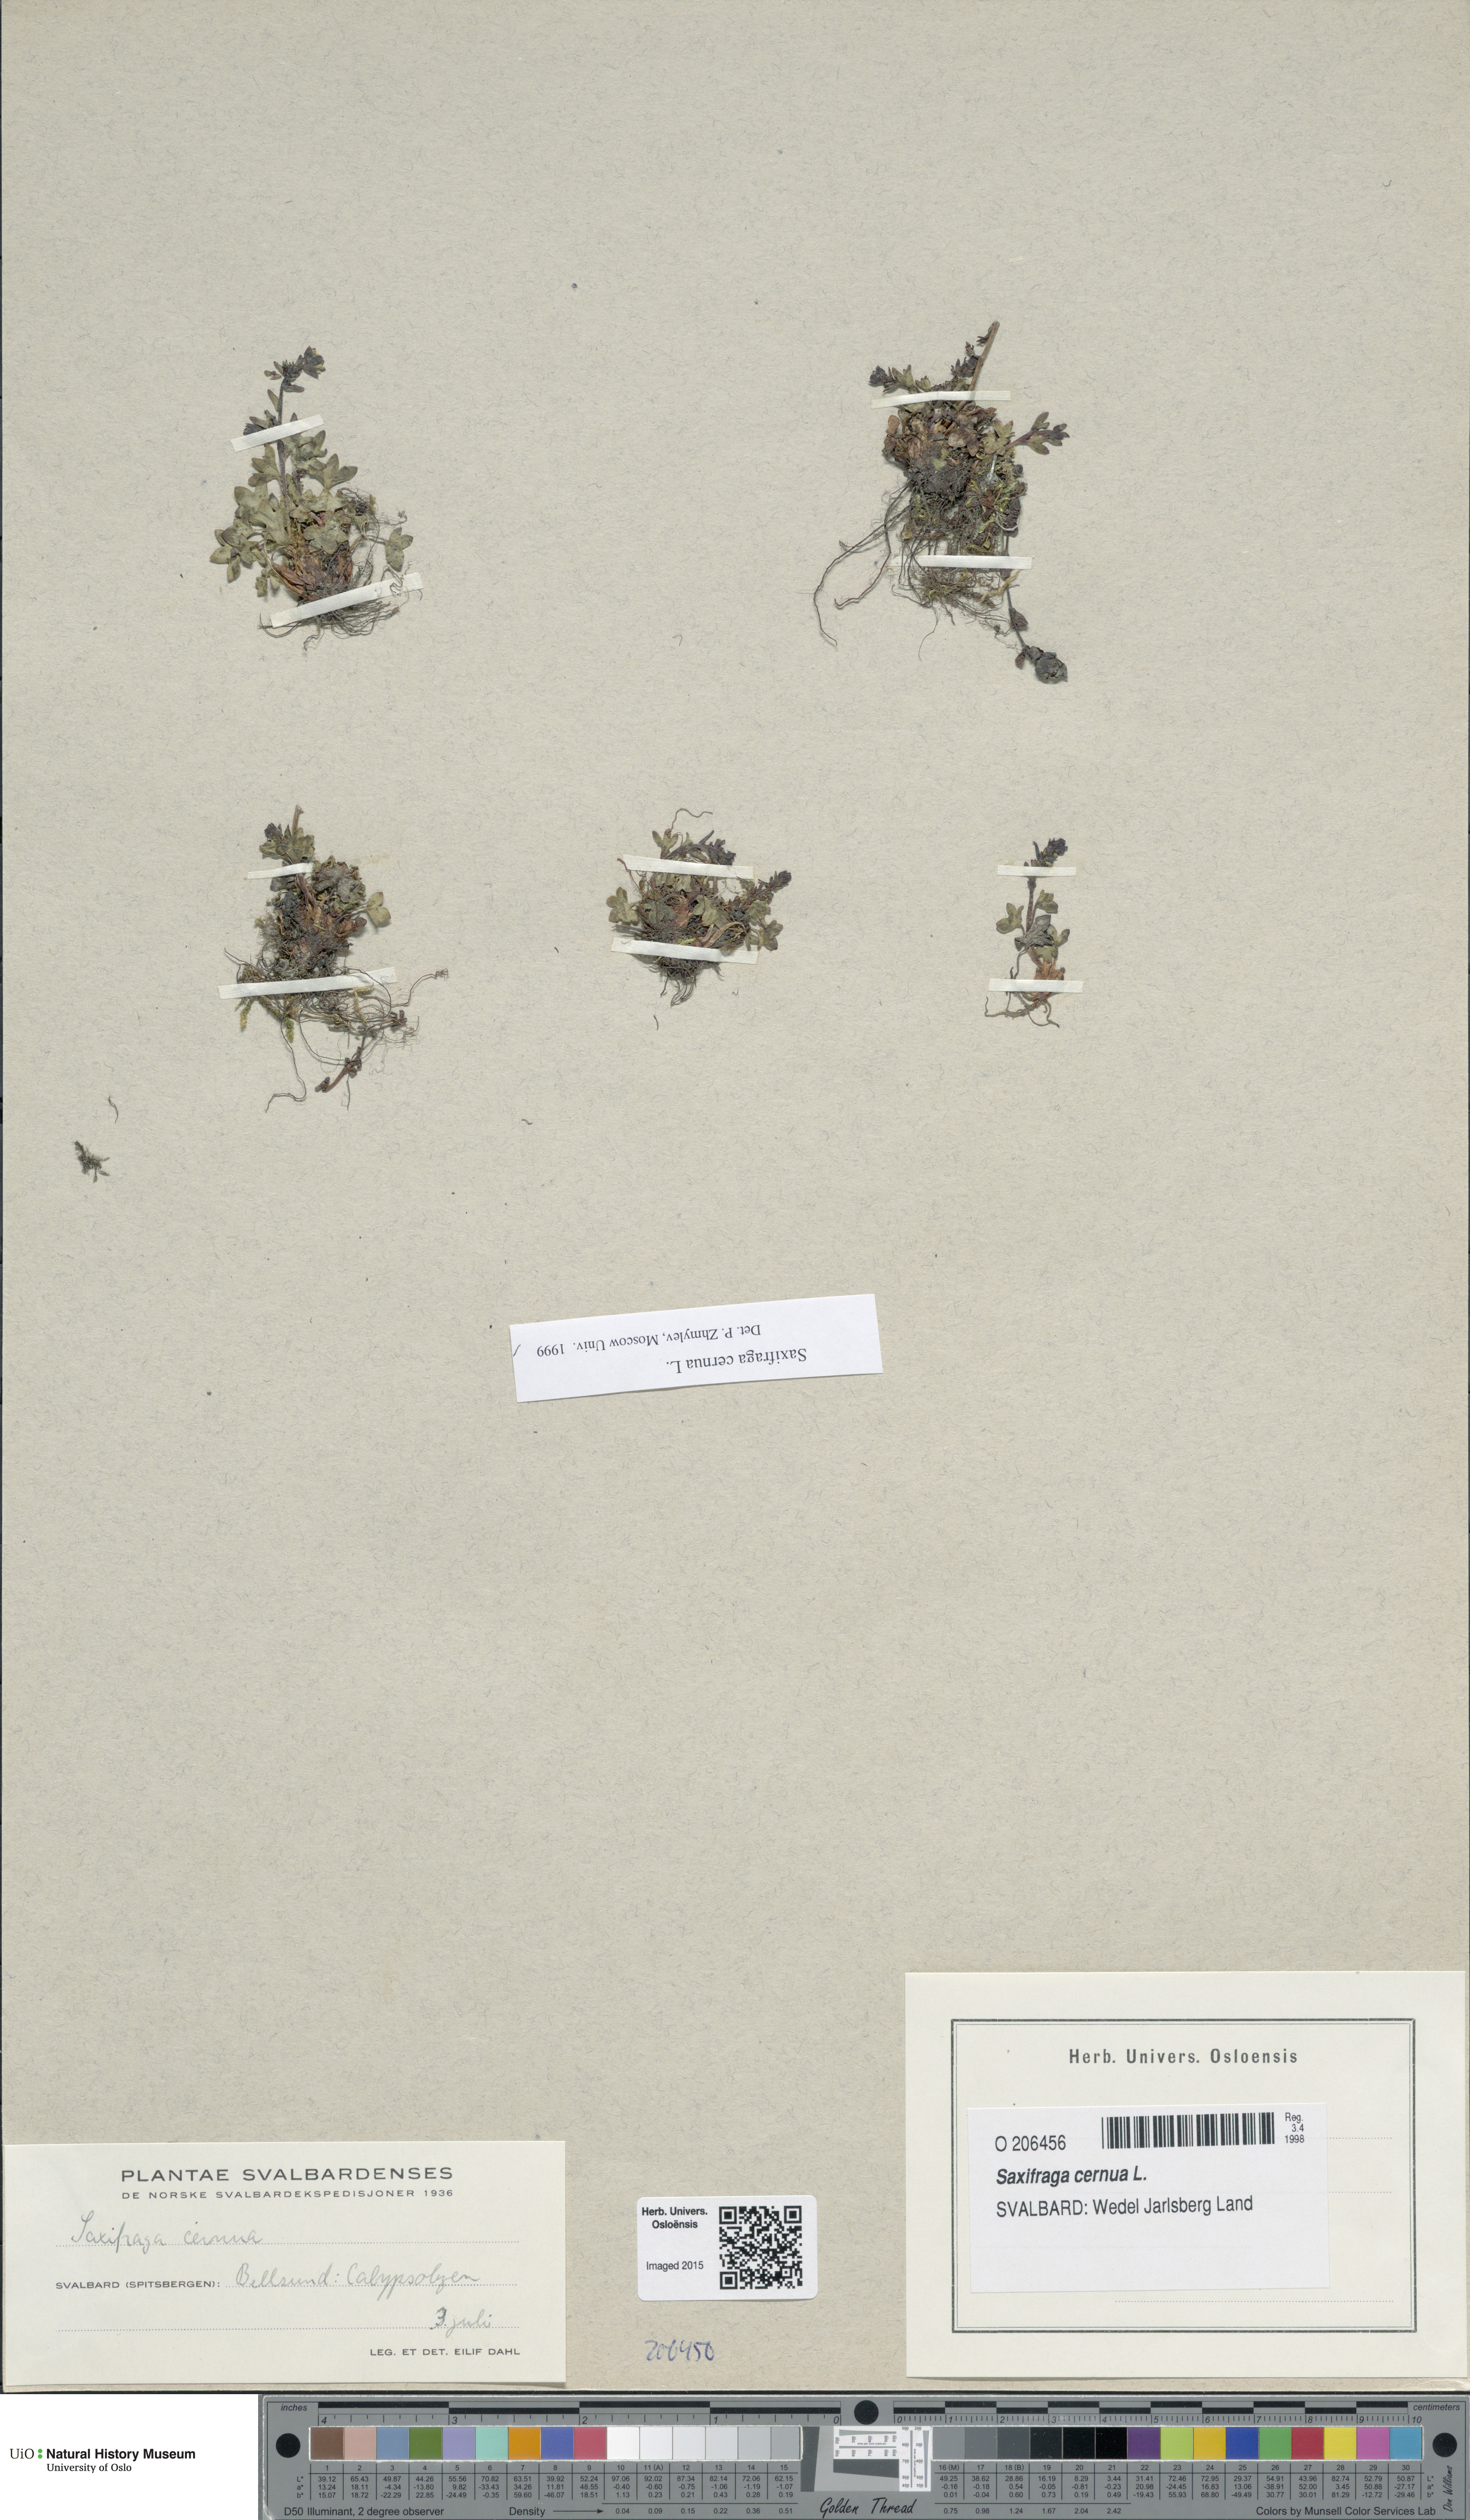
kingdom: Plantae
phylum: Tracheophyta
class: Magnoliopsida
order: Saxifragales
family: Saxifragaceae
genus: Saxifraga
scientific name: Saxifraga cernua
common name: Drooping saxifrage
